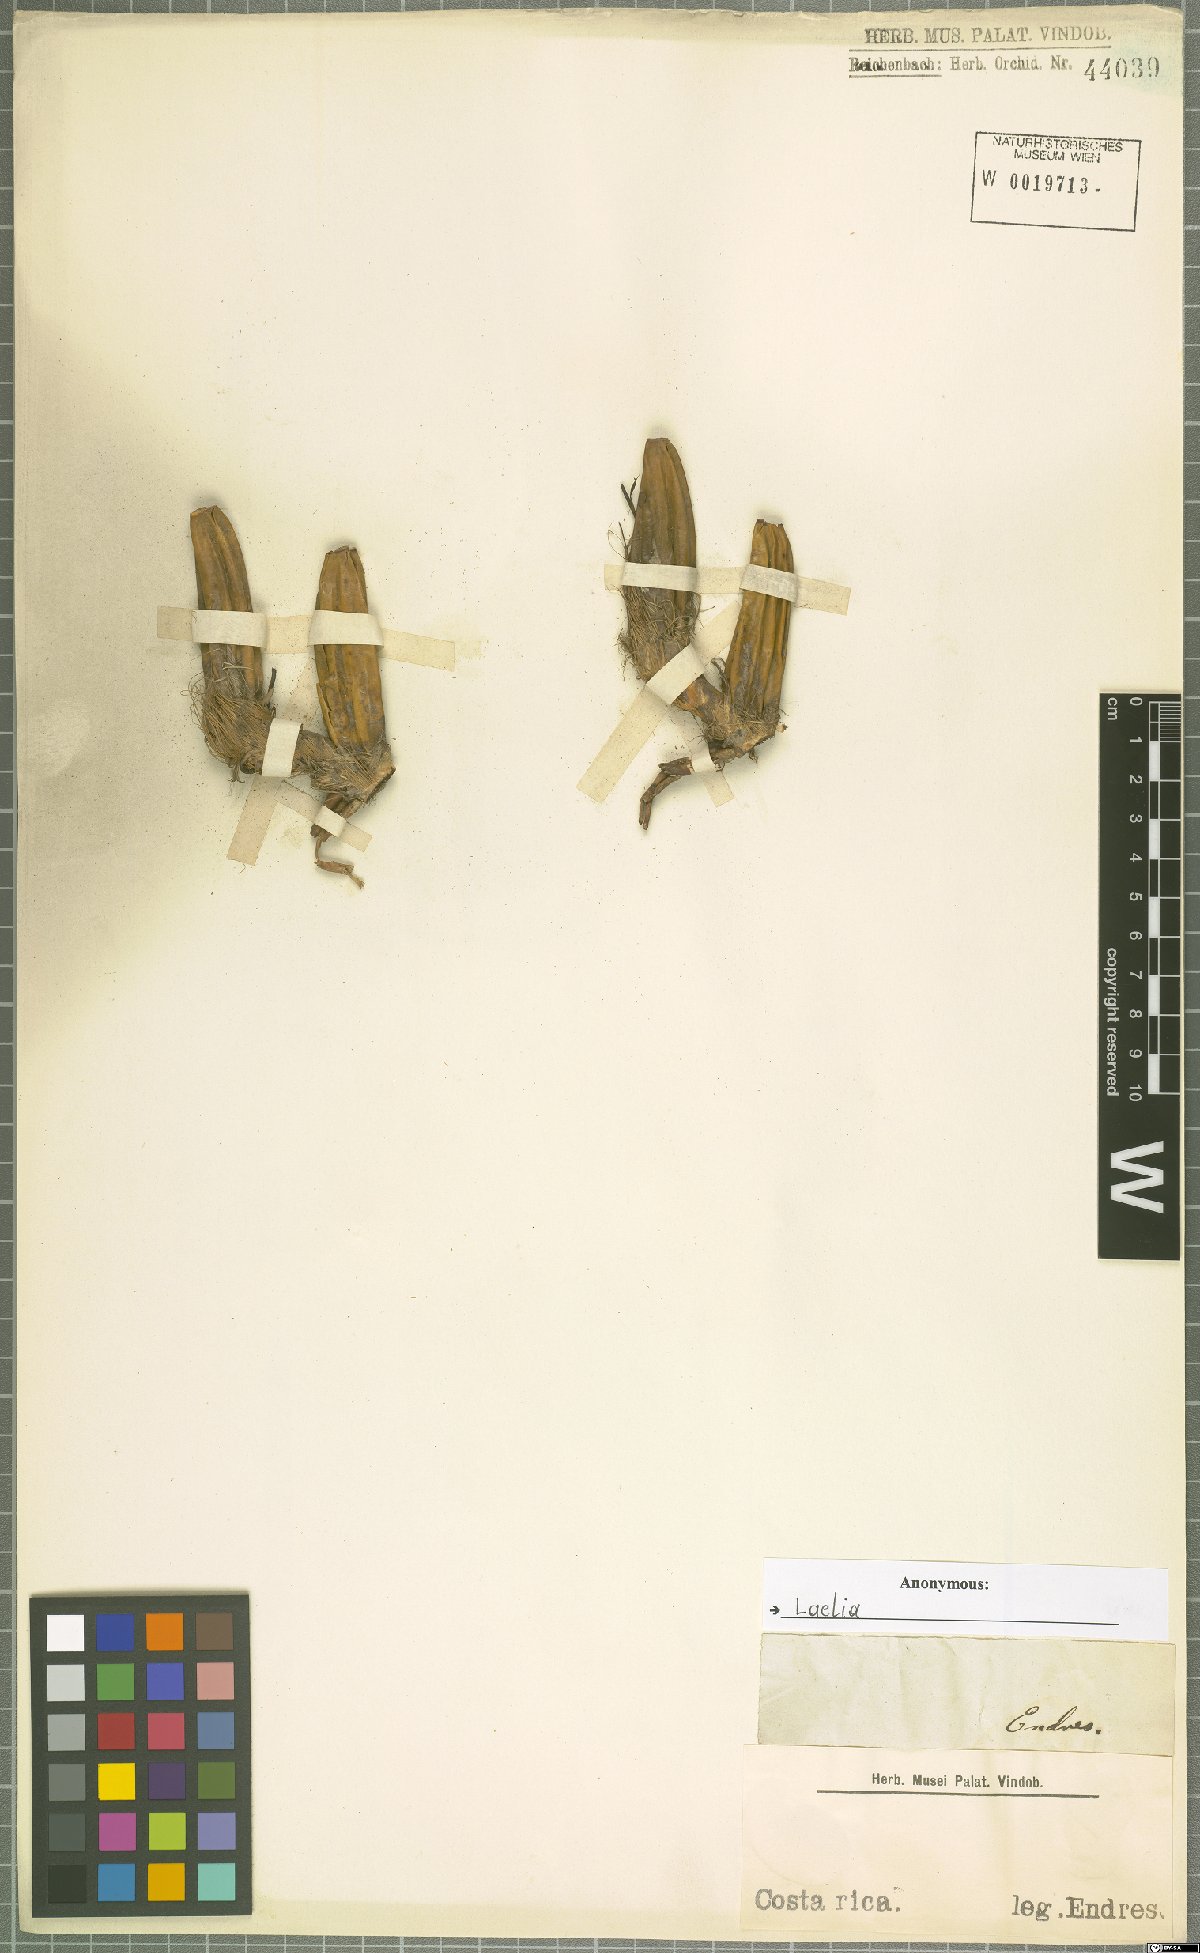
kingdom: Plantae
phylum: Tracheophyta
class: Liliopsida
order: Asparagales
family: Orchidaceae
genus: Laelia
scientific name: Laelia
